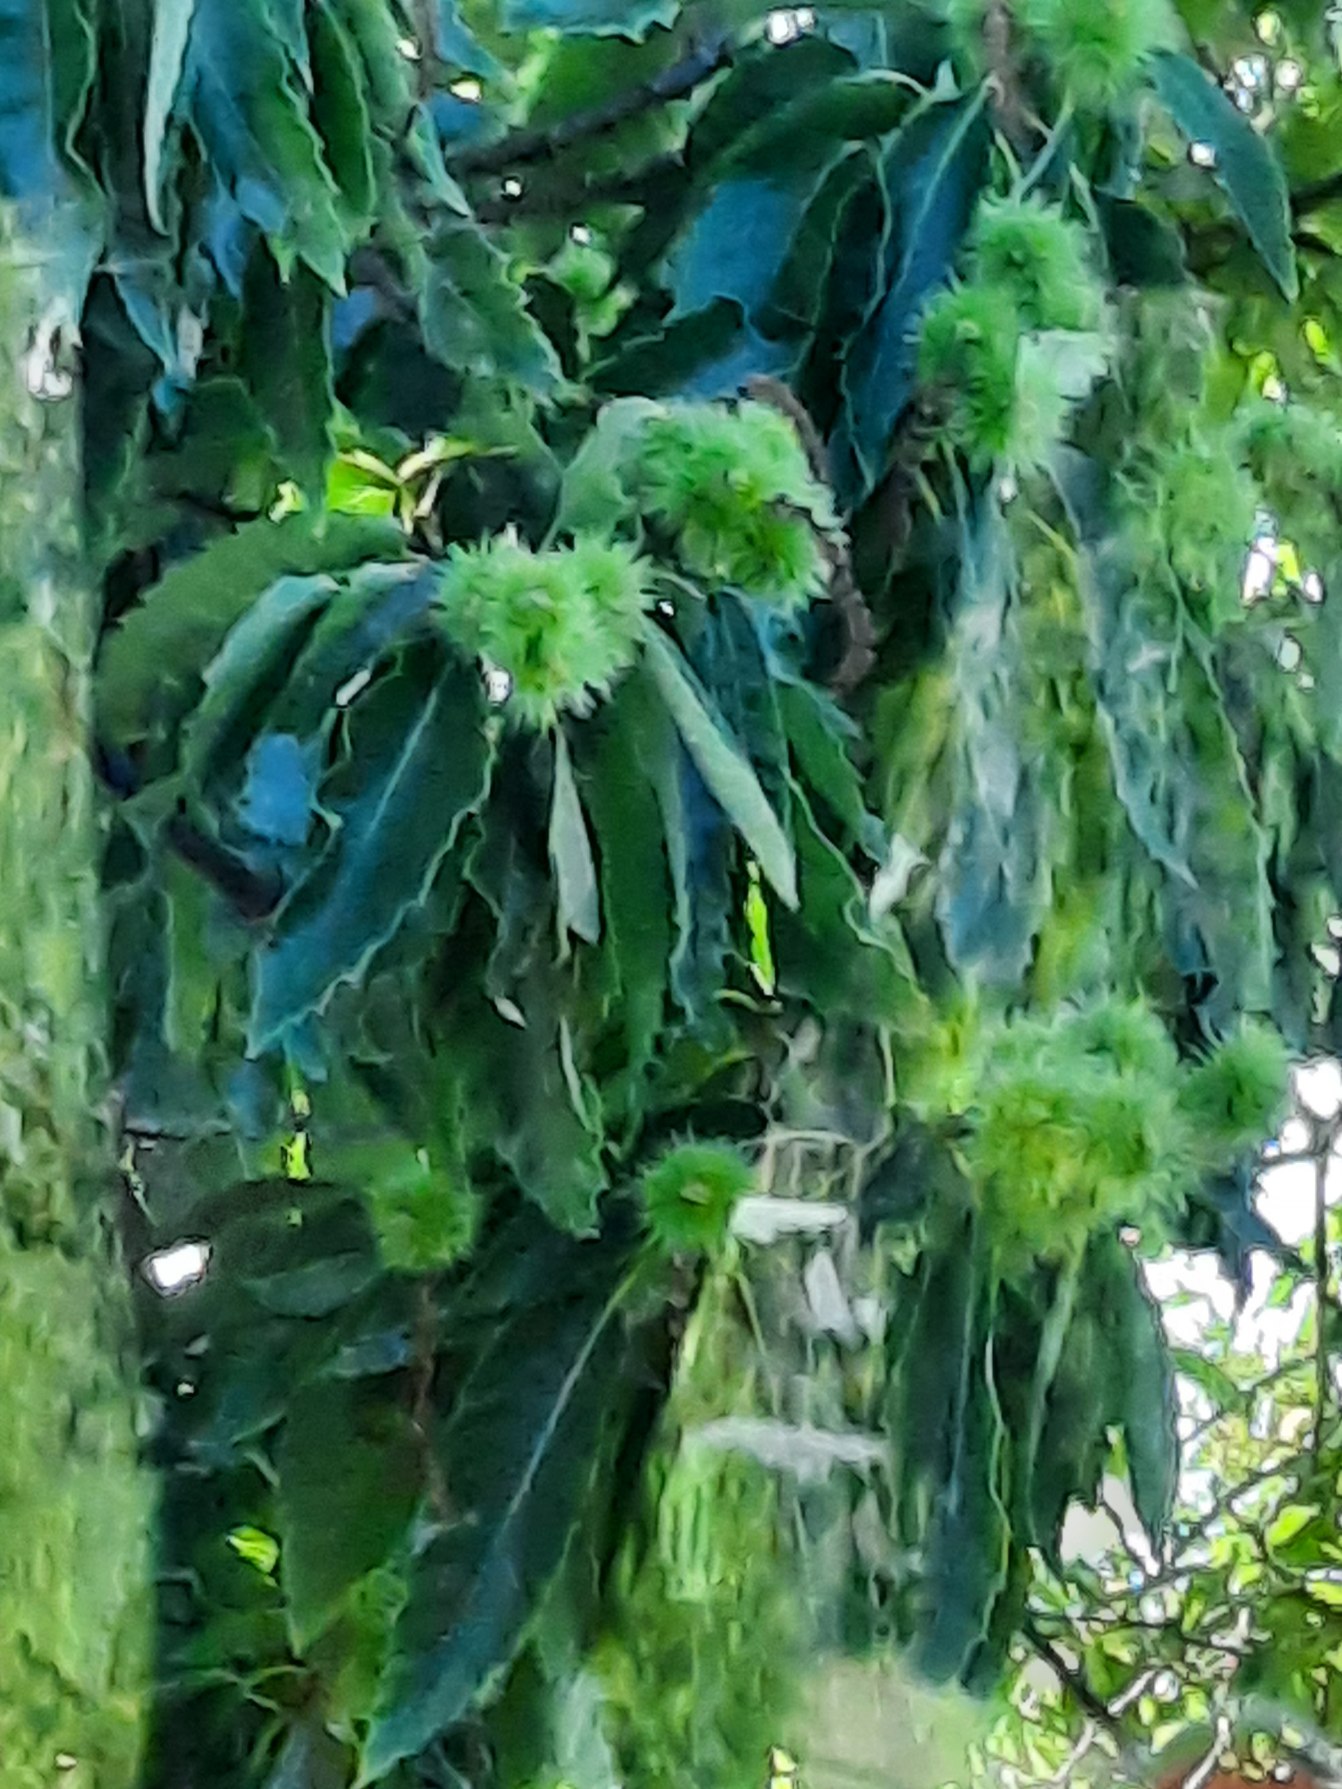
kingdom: Plantae
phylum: Tracheophyta
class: Magnoliopsida
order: Fagales
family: Fagaceae
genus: Castanea
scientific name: Castanea sativa
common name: Ægte kastanie
